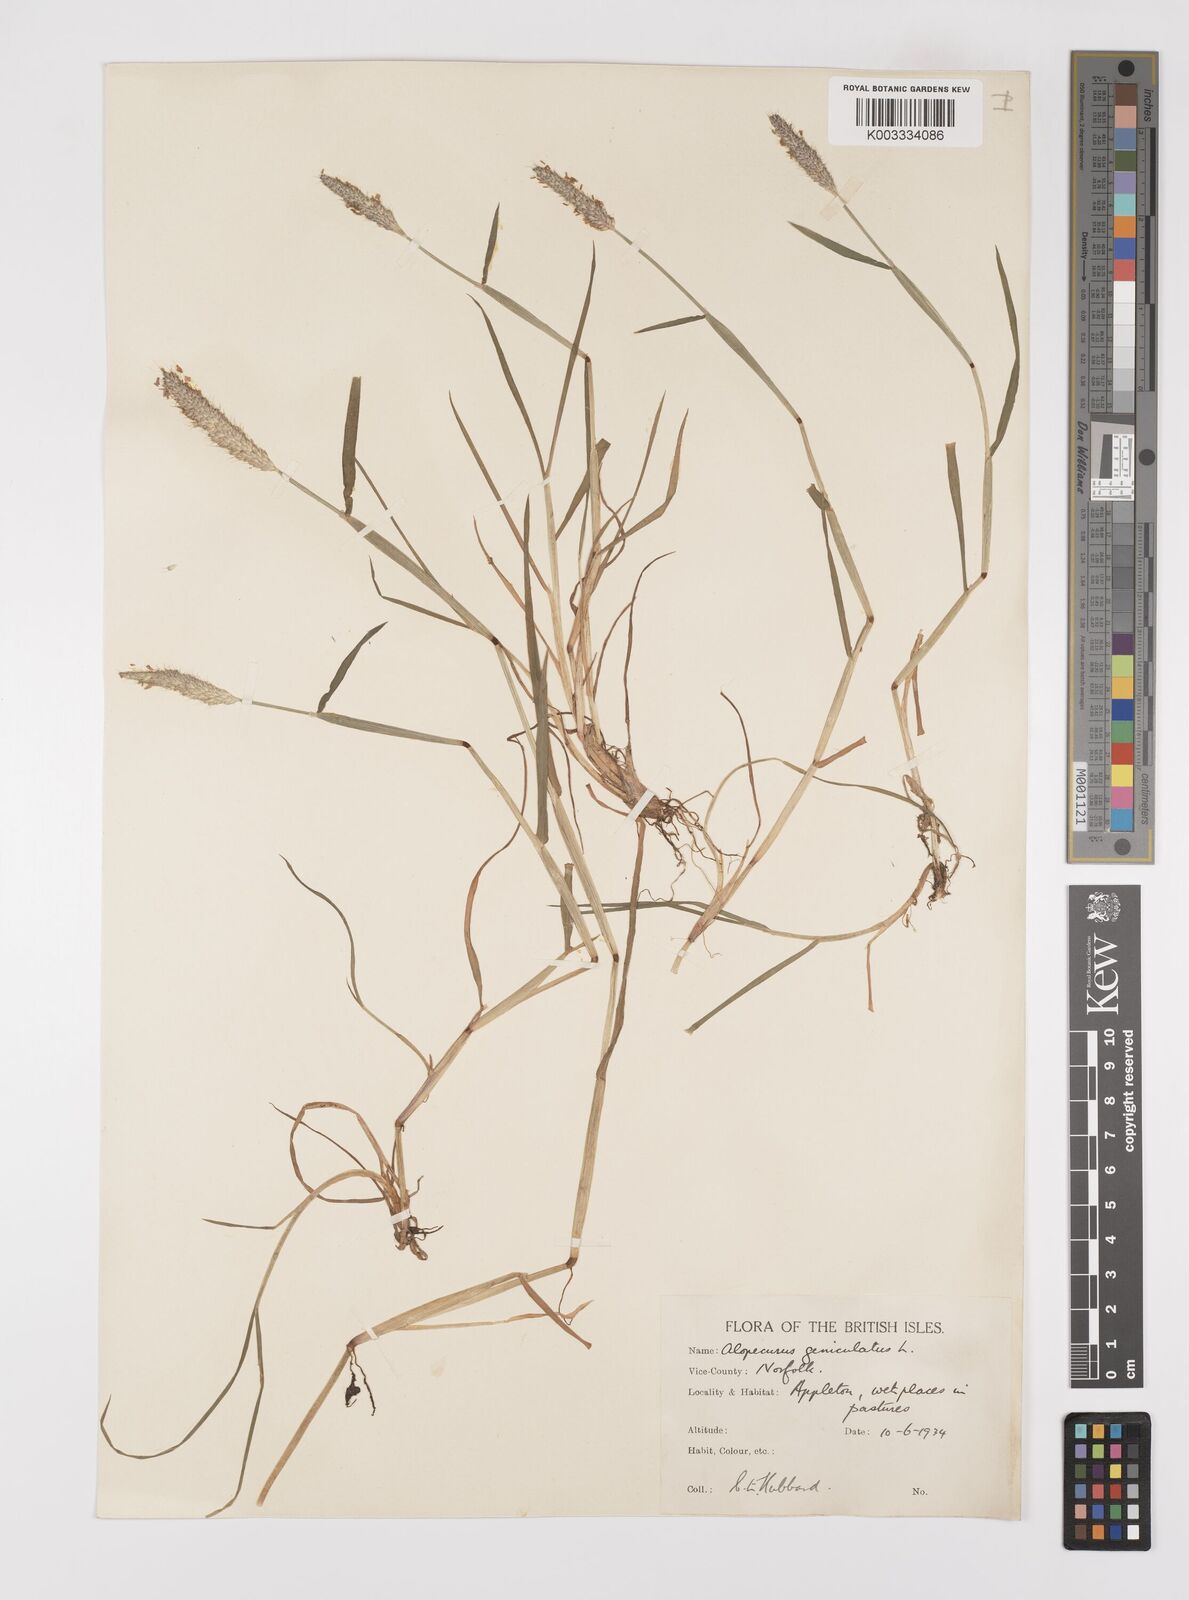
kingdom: Plantae
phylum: Tracheophyta
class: Liliopsida
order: Poales
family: Poaceae
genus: Alopecurus
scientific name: Alopecurus geniculatus
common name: Water foxtail
